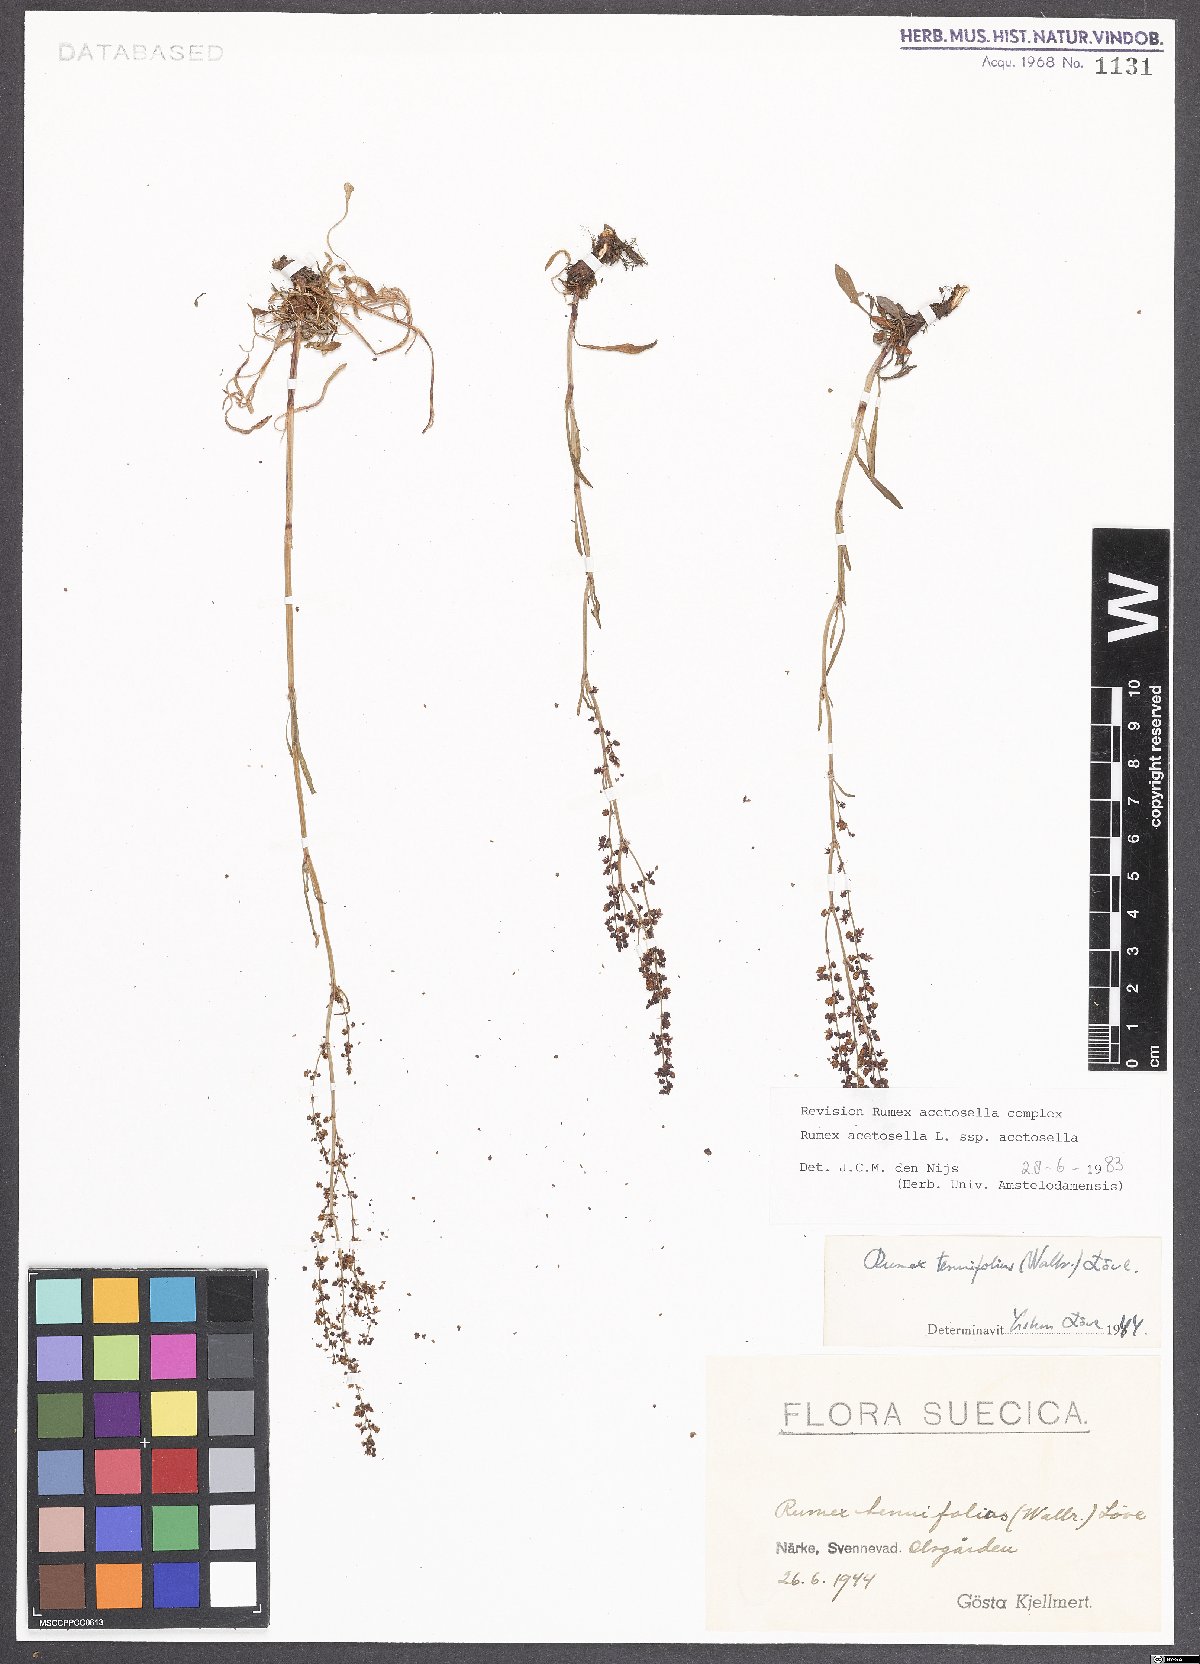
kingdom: Plantae
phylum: Tracheophyta
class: Magnoliopsida
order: Caryophyllales
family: Polygonaceae
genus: Rumex
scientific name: Rumex acetosella
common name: Common sheep sorrel
